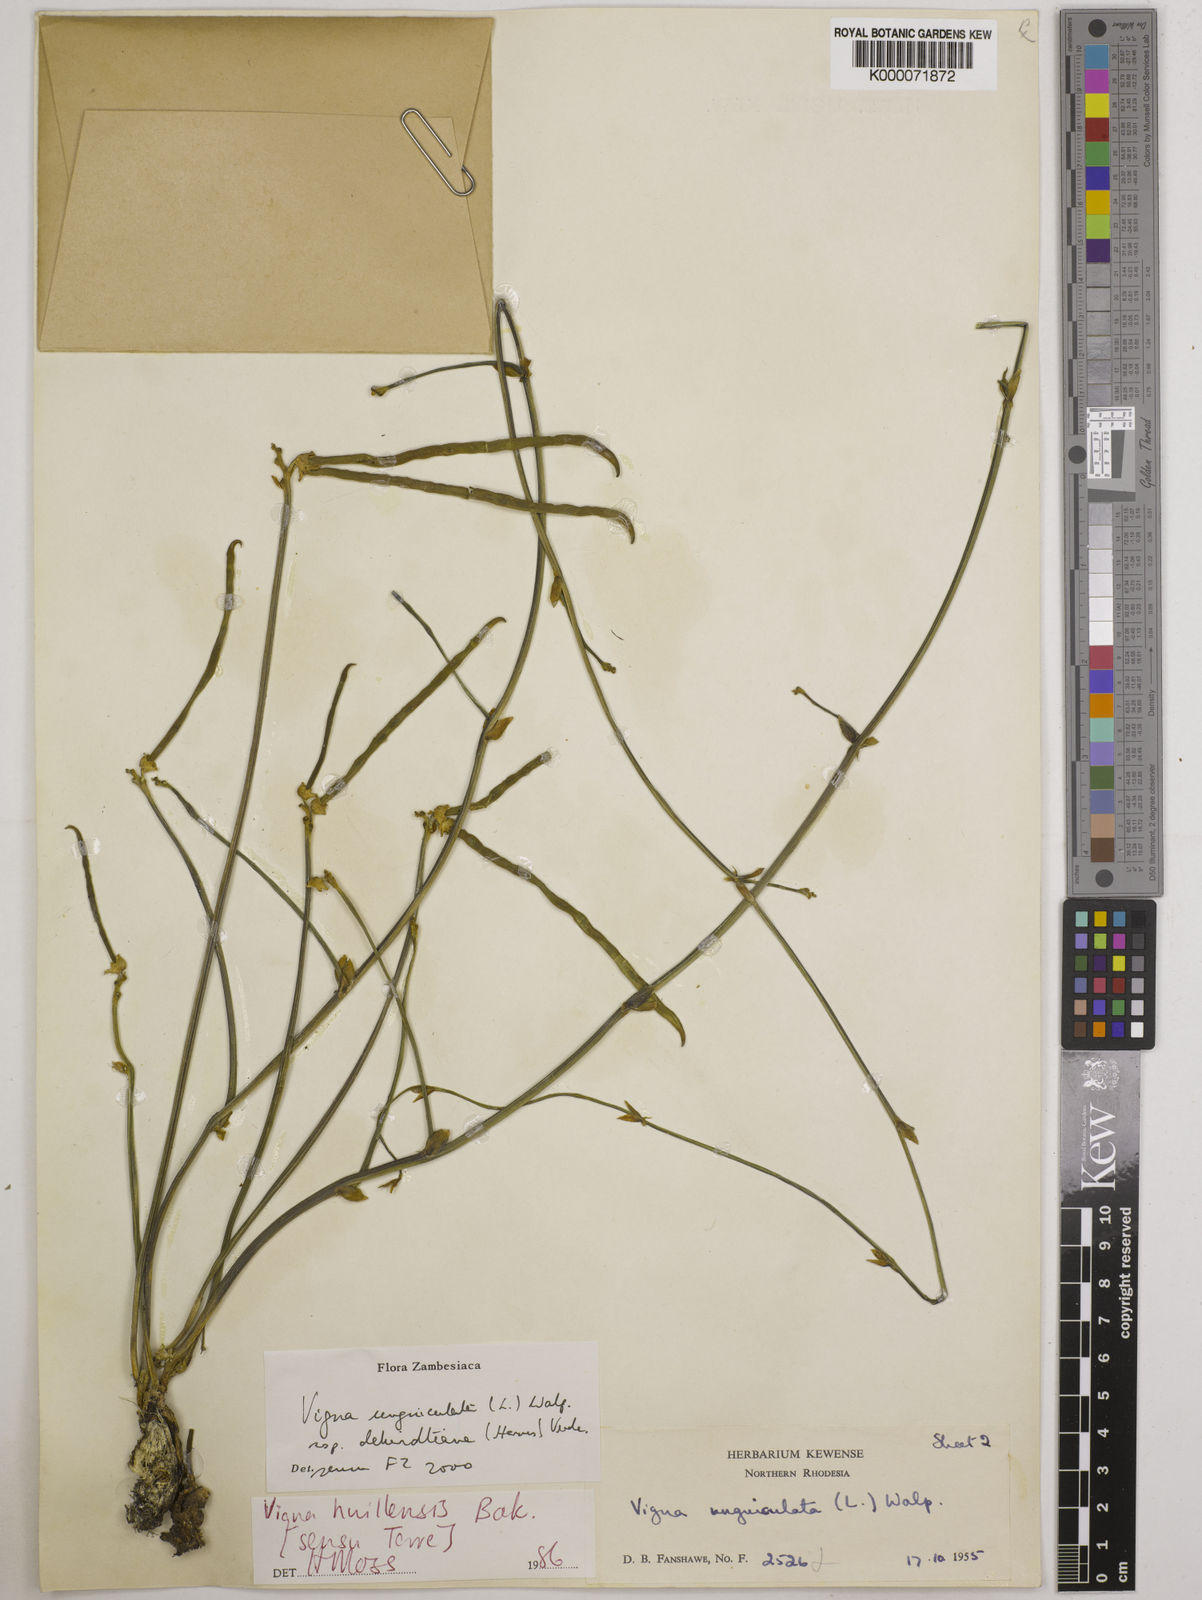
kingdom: Plantae
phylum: Tracheophyta
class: Magnoliopsida
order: Fabales
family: Fabaceae
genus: Vigna
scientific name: Vigna unguiculata
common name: Cowpea
